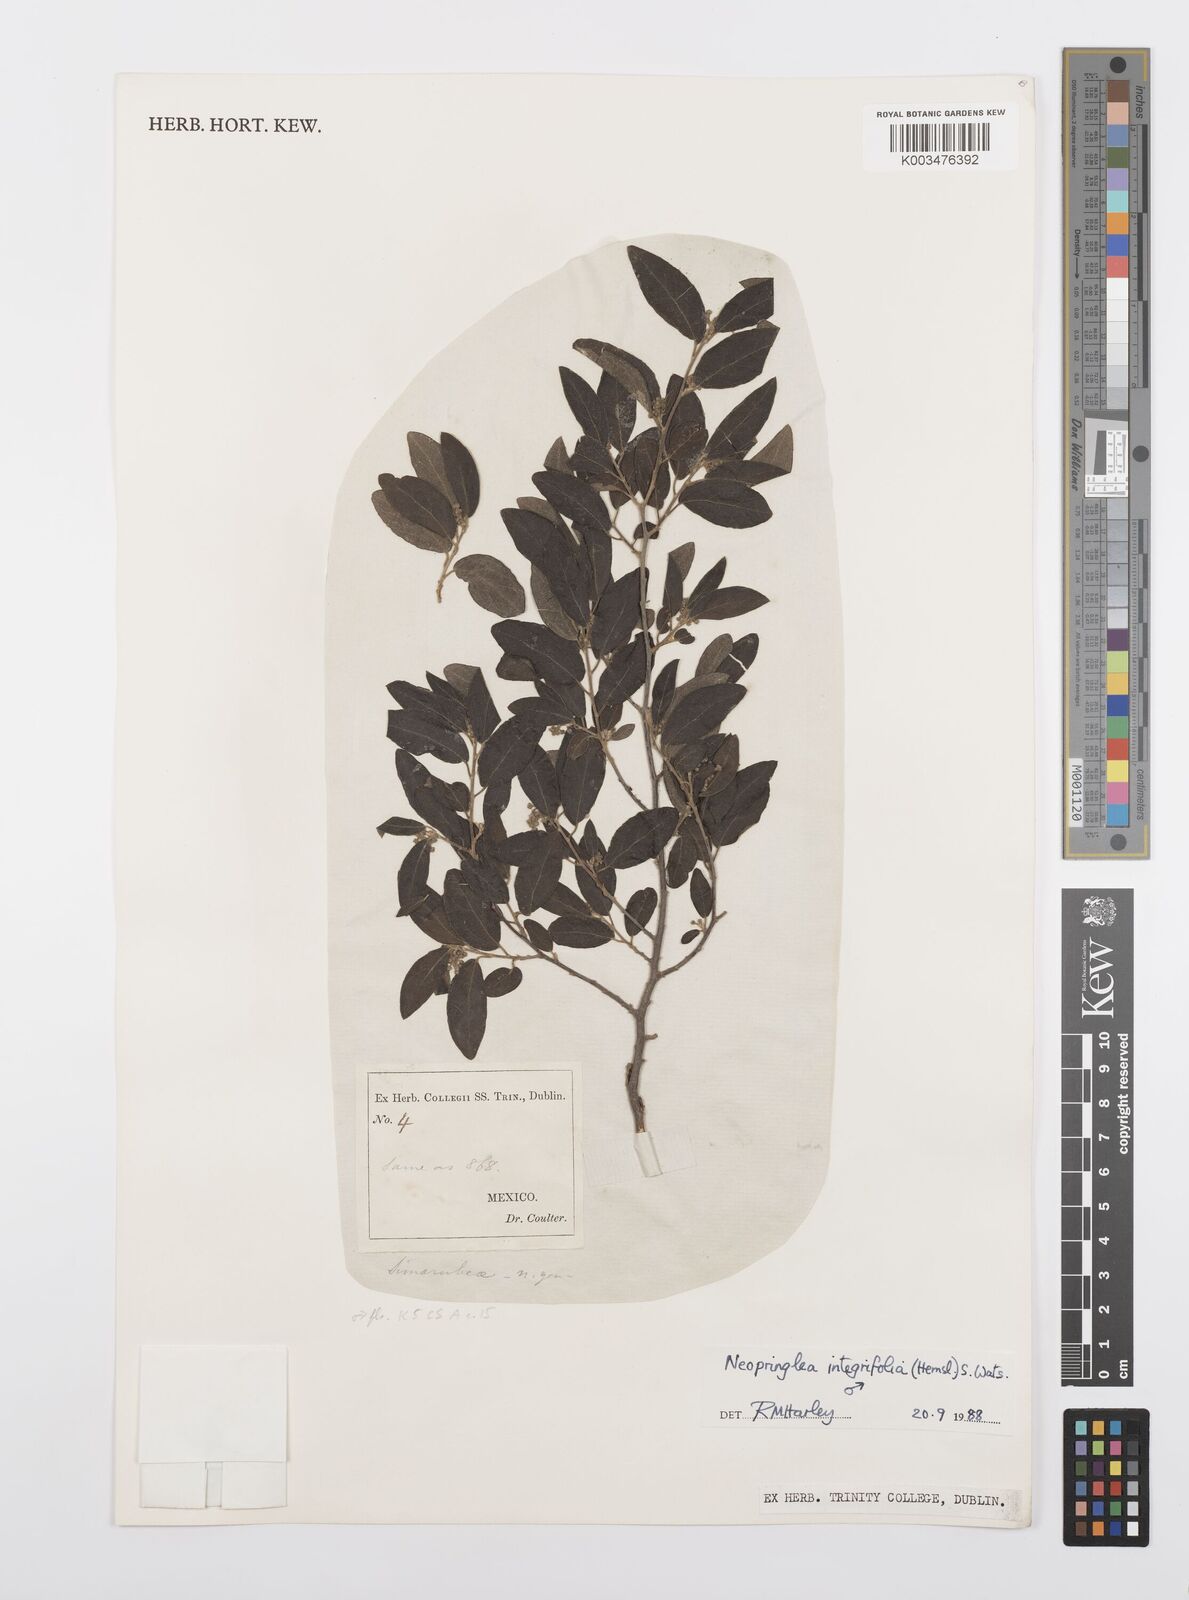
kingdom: Plantae
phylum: Tracheophyta
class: Magnoliopsida
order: Malpighiales
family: Salicaceae
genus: Neopringlea
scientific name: Neopringlea integrifolia
